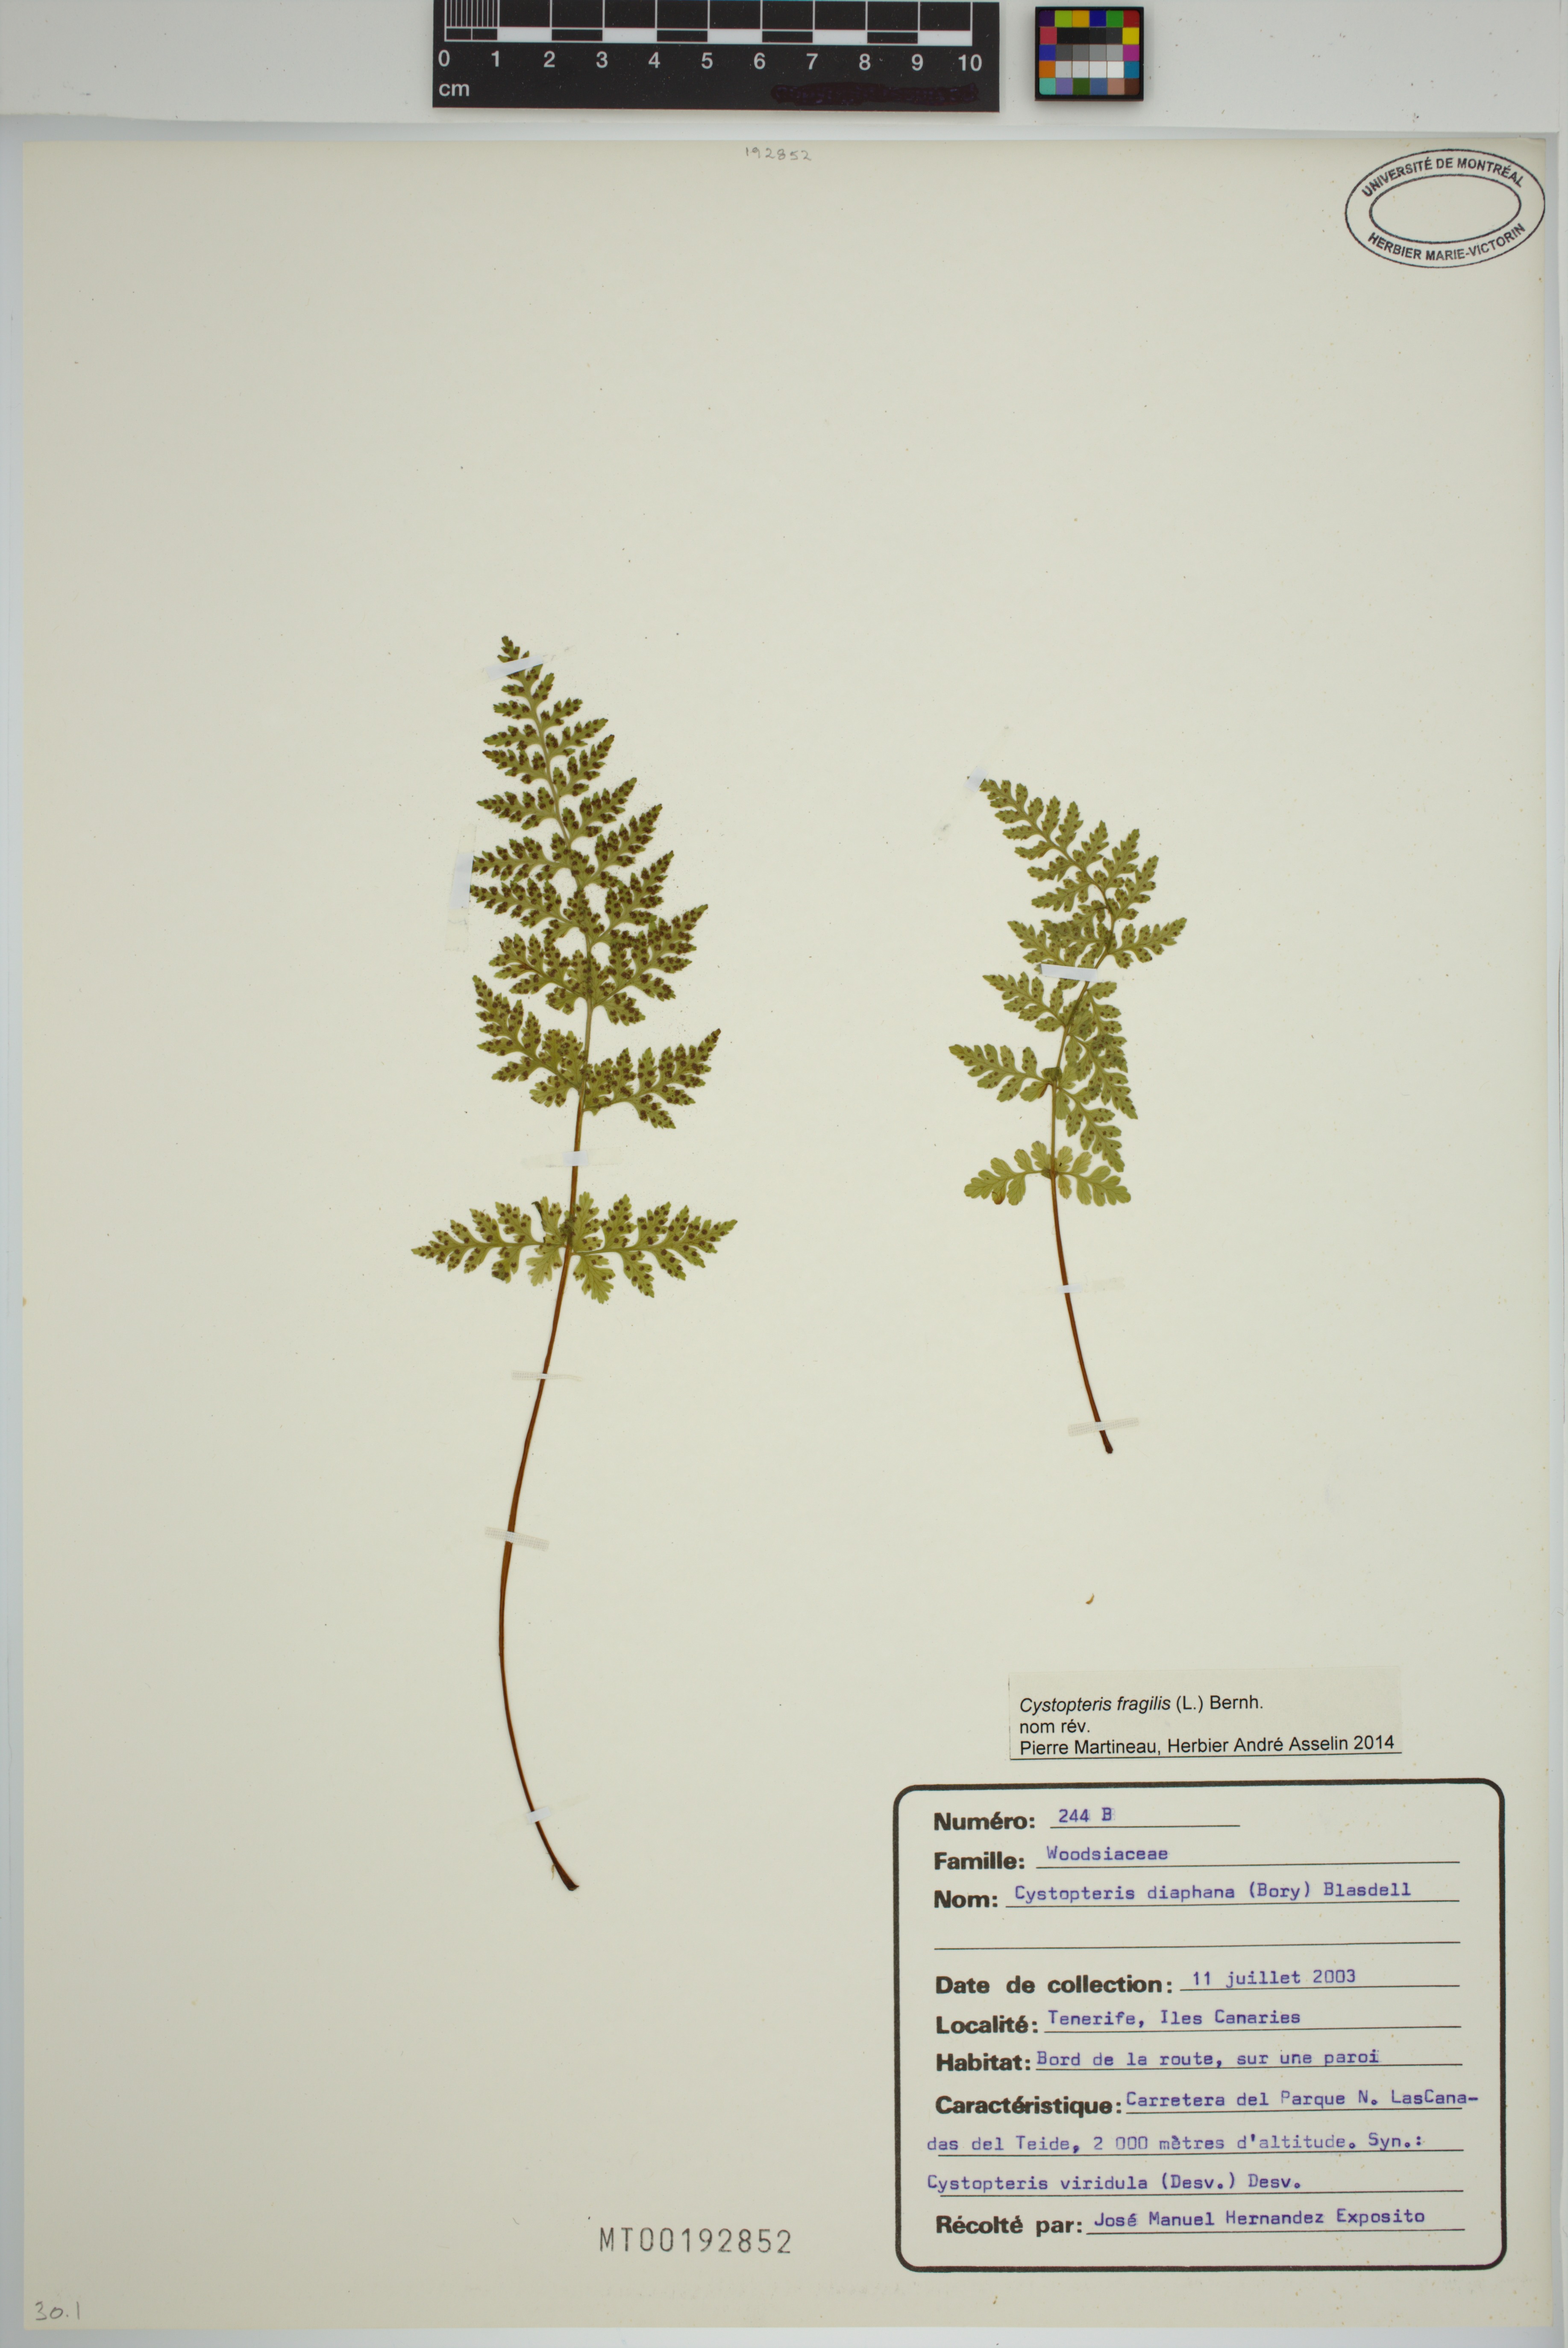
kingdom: Plantae
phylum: Tracheophyta
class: Polypodiopsida
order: Polypodiales
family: Cystopteridaceae
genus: Cystopteris
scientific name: Cystopteris fragilis
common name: Brittle bladder fern
